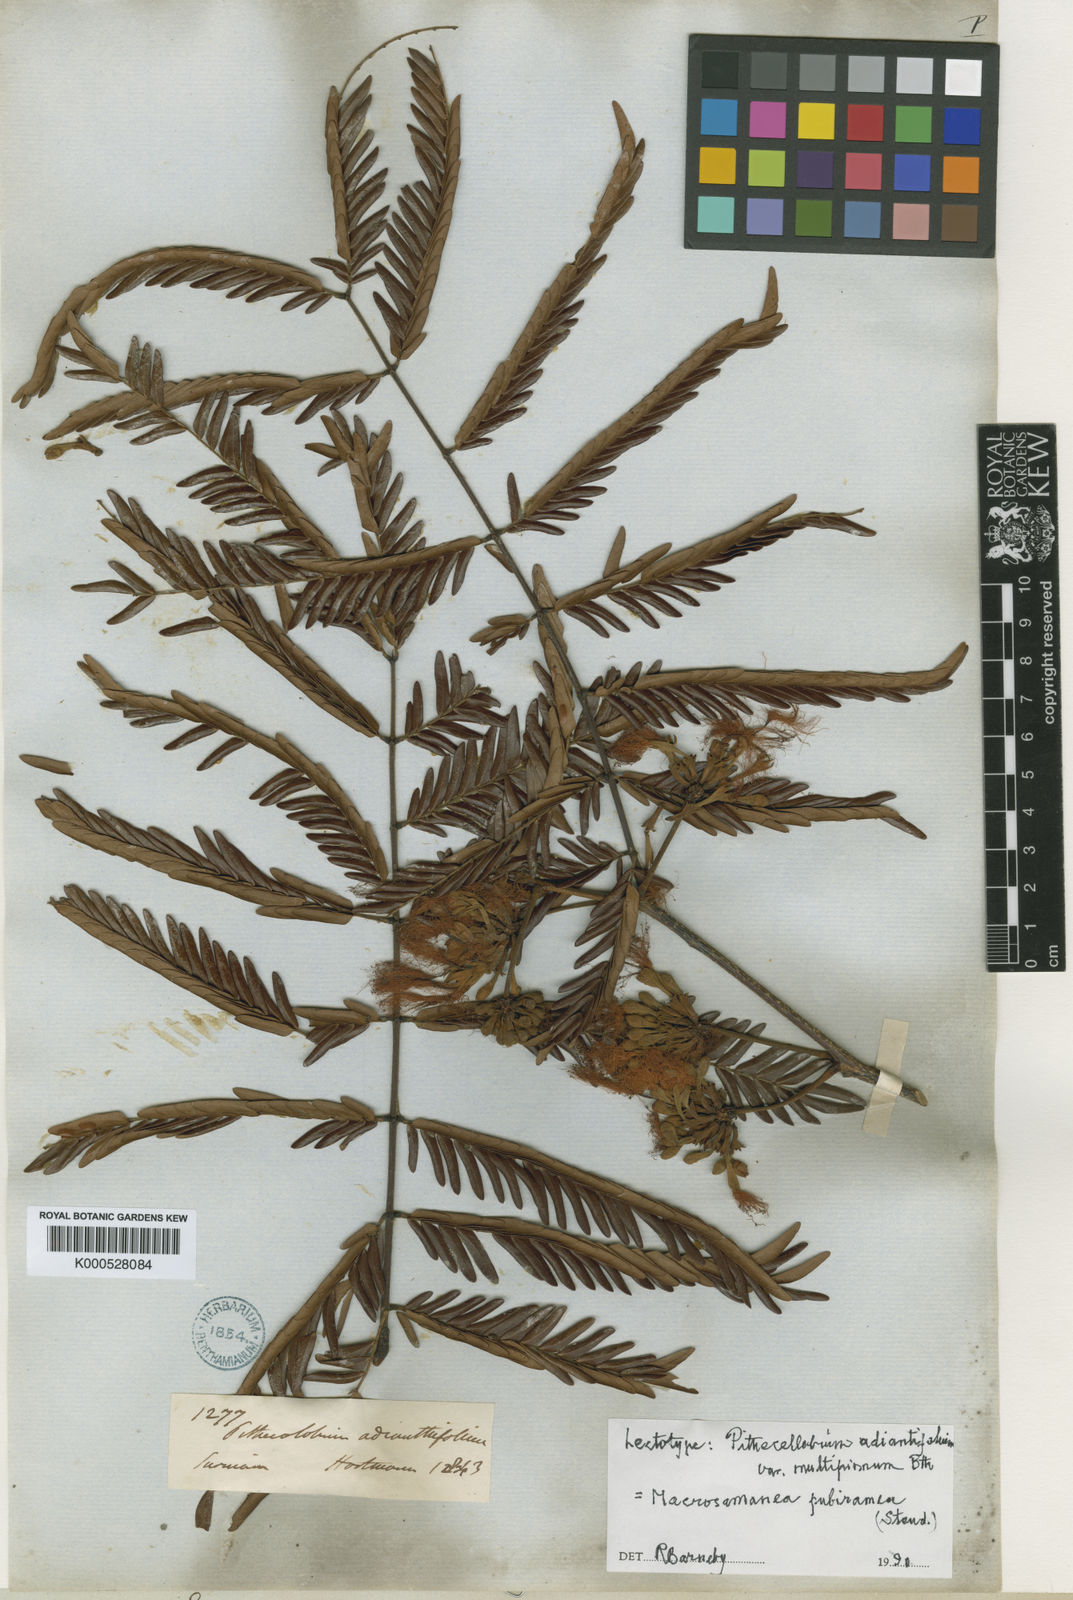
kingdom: Plantae
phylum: Tracheophyta
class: Magnoliopsida
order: Fabales
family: Fabaceae
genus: Macrosamanea
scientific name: Macrosamanea pubiramea
